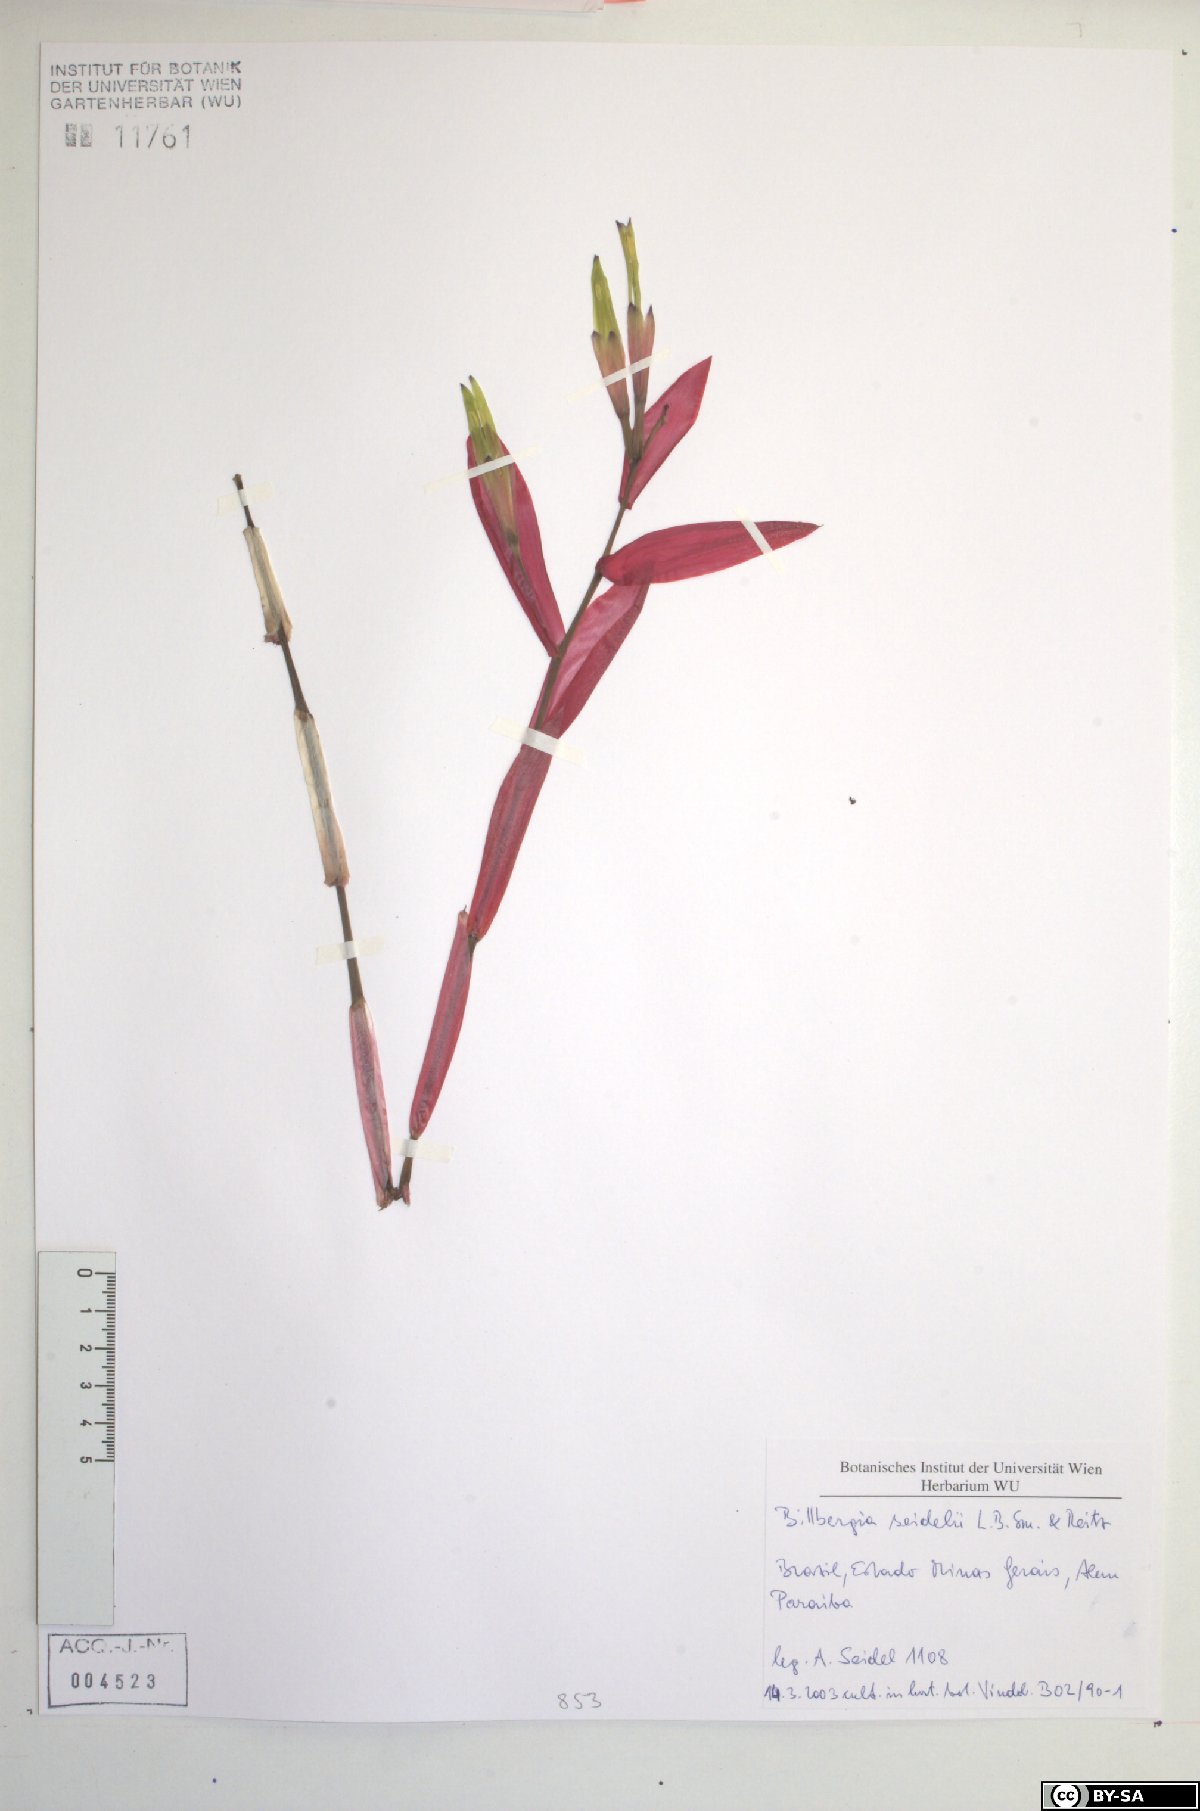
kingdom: Plantae
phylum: Tracheophyta
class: Liliopsida
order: Poales
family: Bromeliaceae
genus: Billbergia
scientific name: Billbergia seidelii
